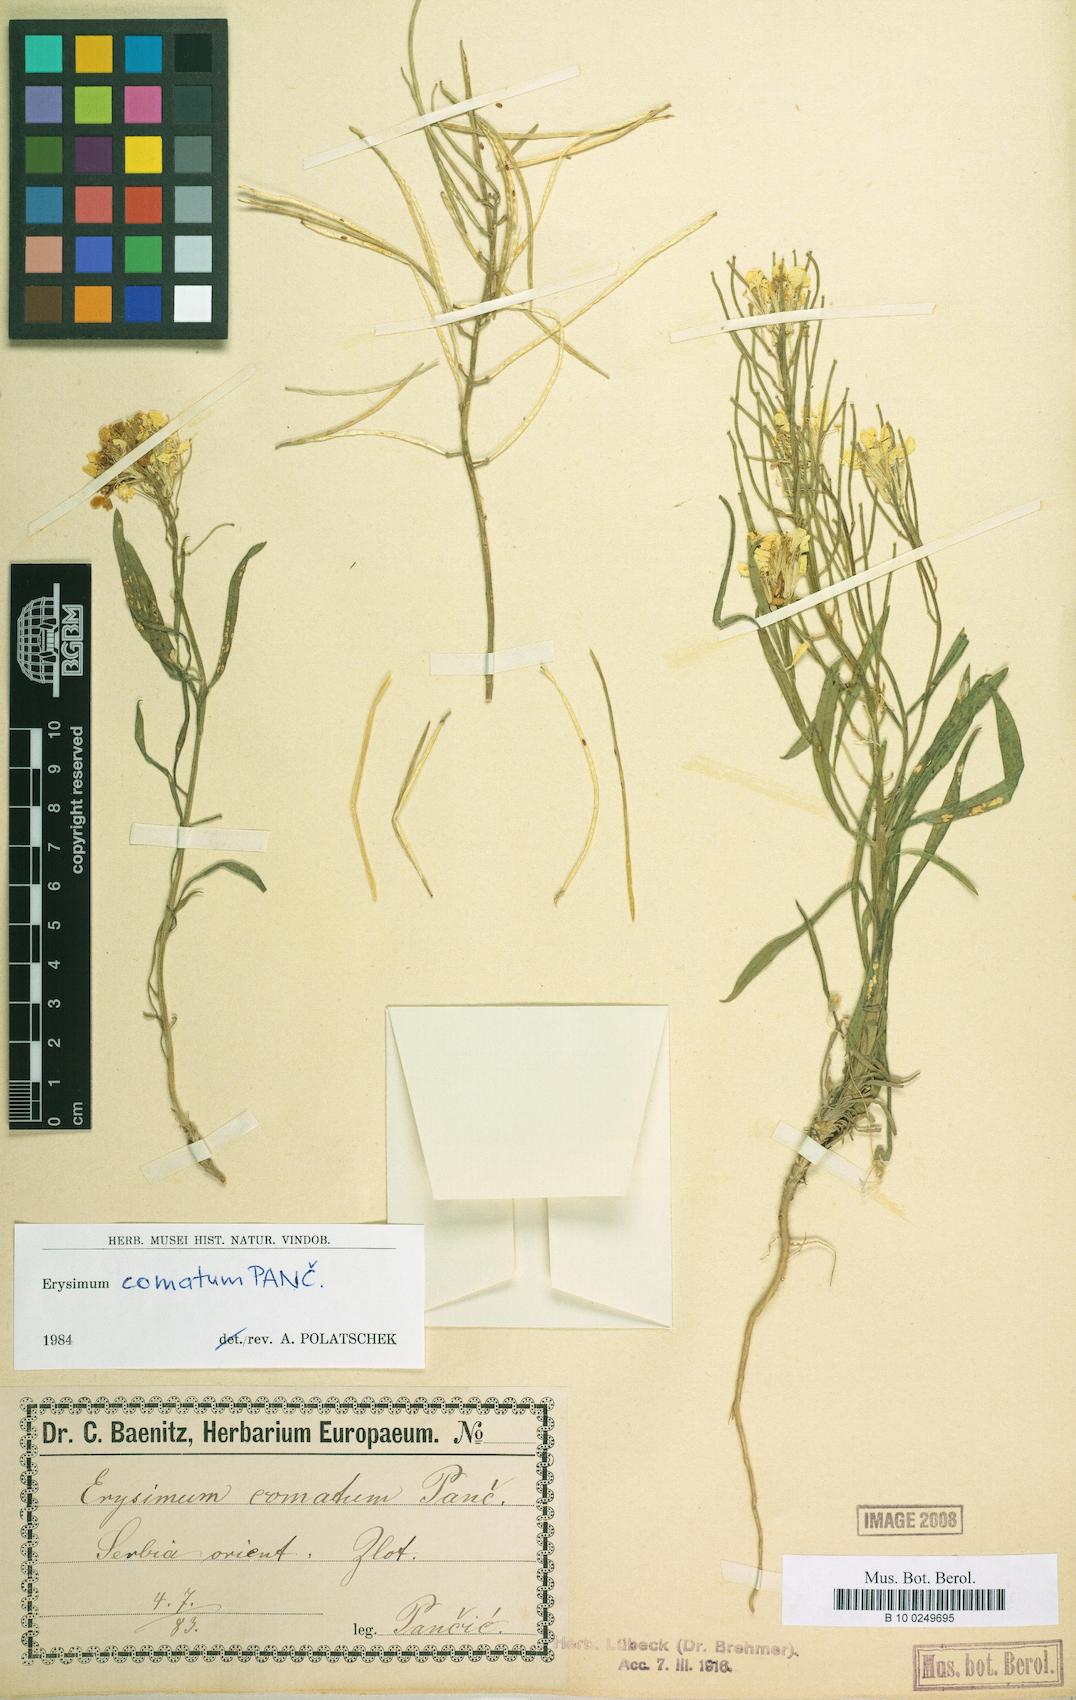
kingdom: Plantae
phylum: Tracheophyta
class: Magnoliopsida
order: Brassicales
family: Brassicaceae
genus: Erysimum
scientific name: Erysimum comatum
